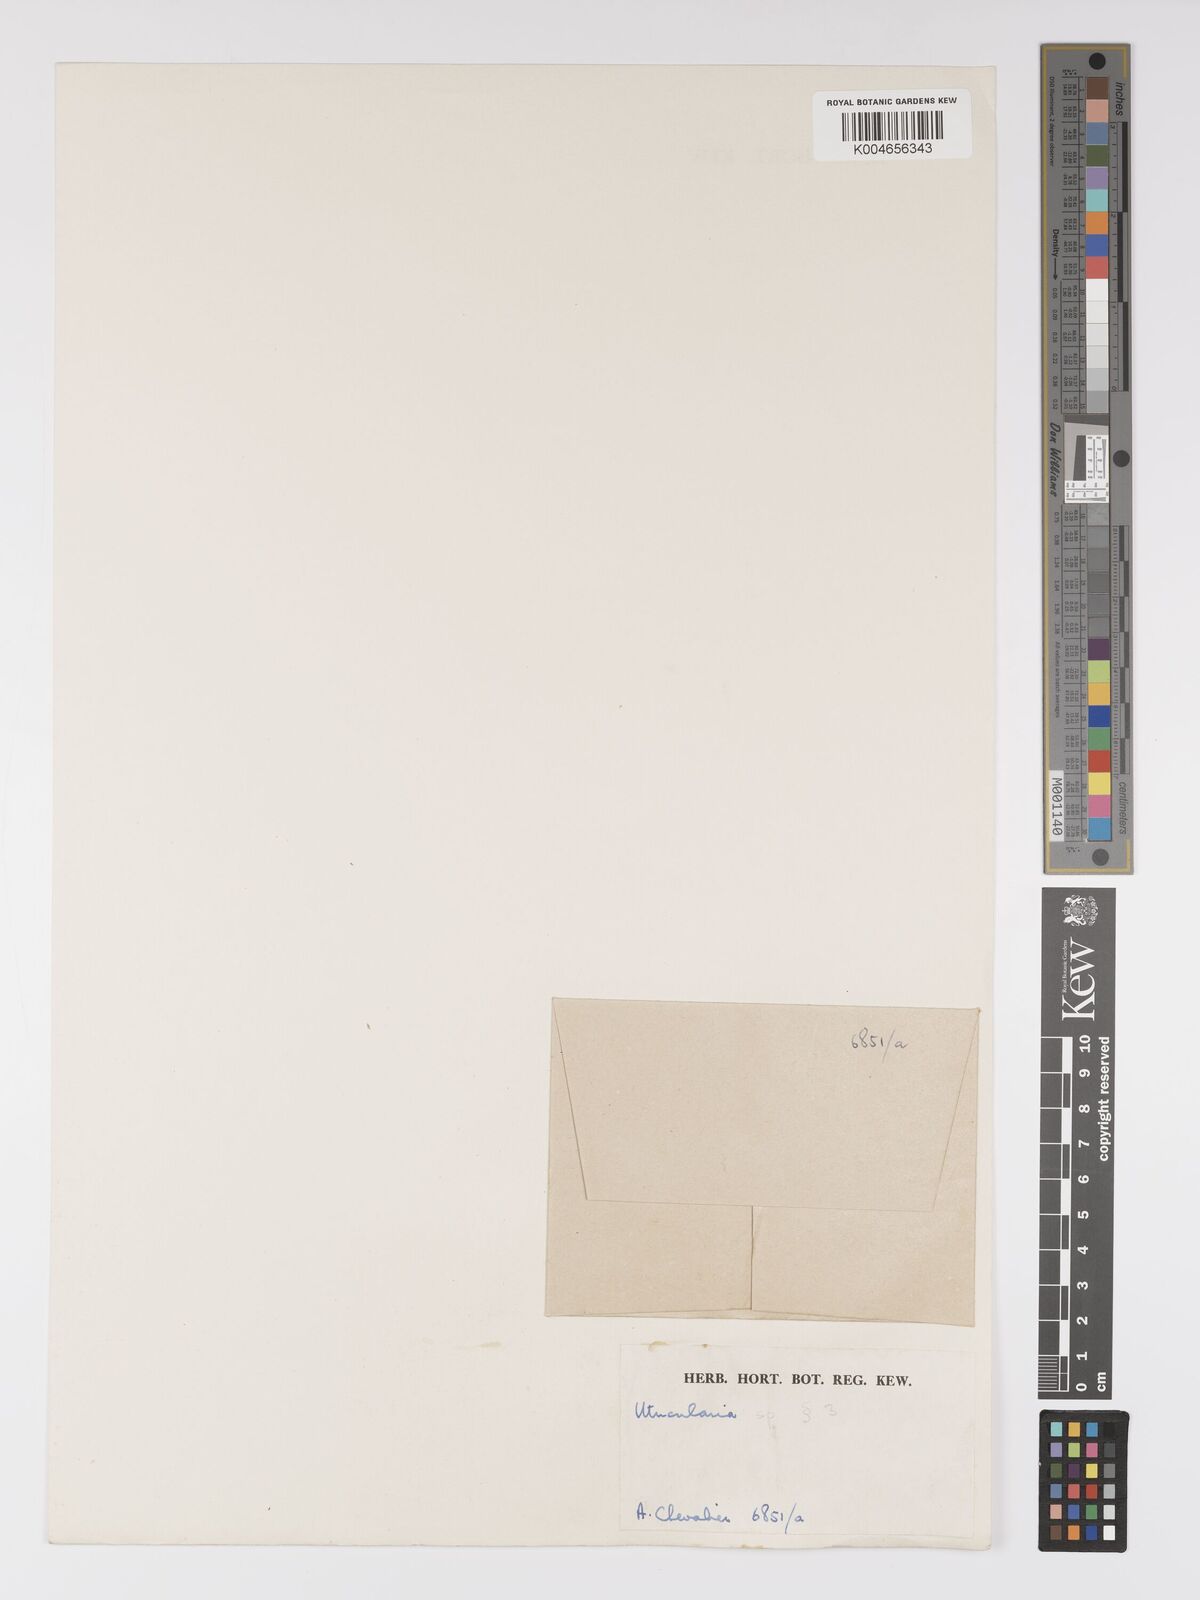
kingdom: Plantae
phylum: Tracheophyta
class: Magnoliopsida
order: Lamiales
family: Lentibulariaceae
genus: Utricularia
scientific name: Utricularia spiralis
